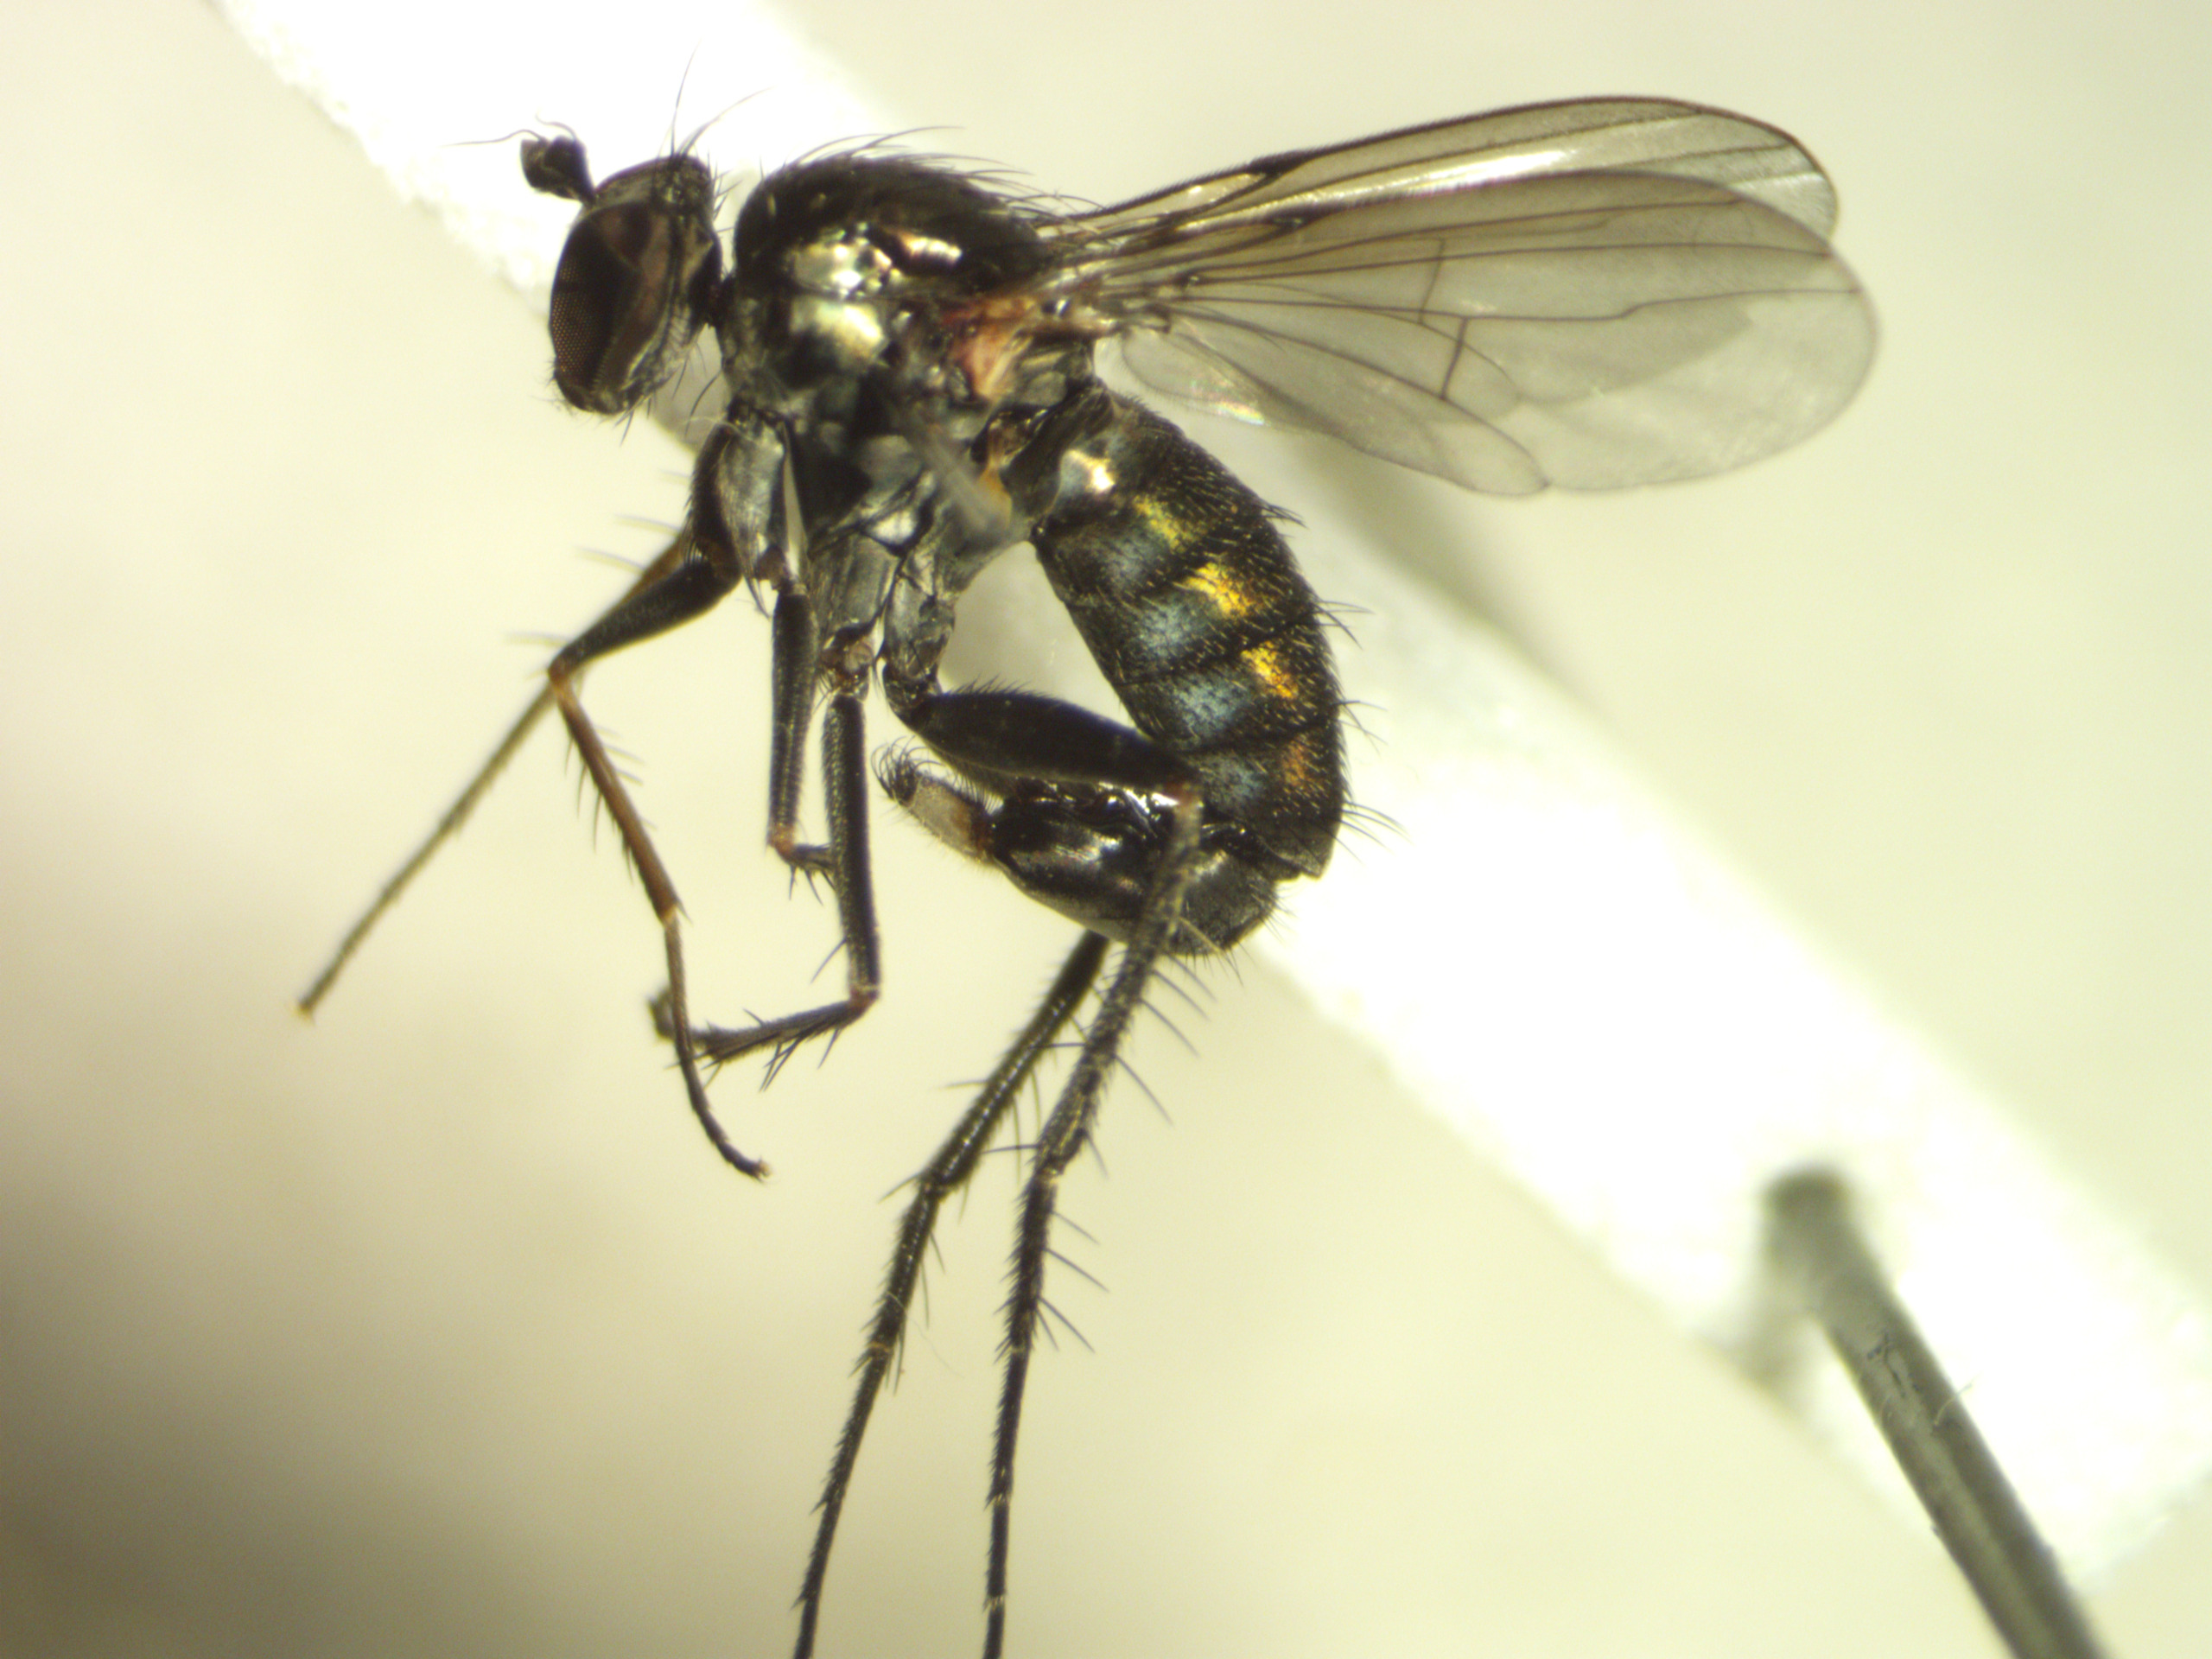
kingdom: Animalia
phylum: Arthropoda
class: Insecta
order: Diptera
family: Dolichopodidae
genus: Dolichopus
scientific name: Dolichopus picipes
